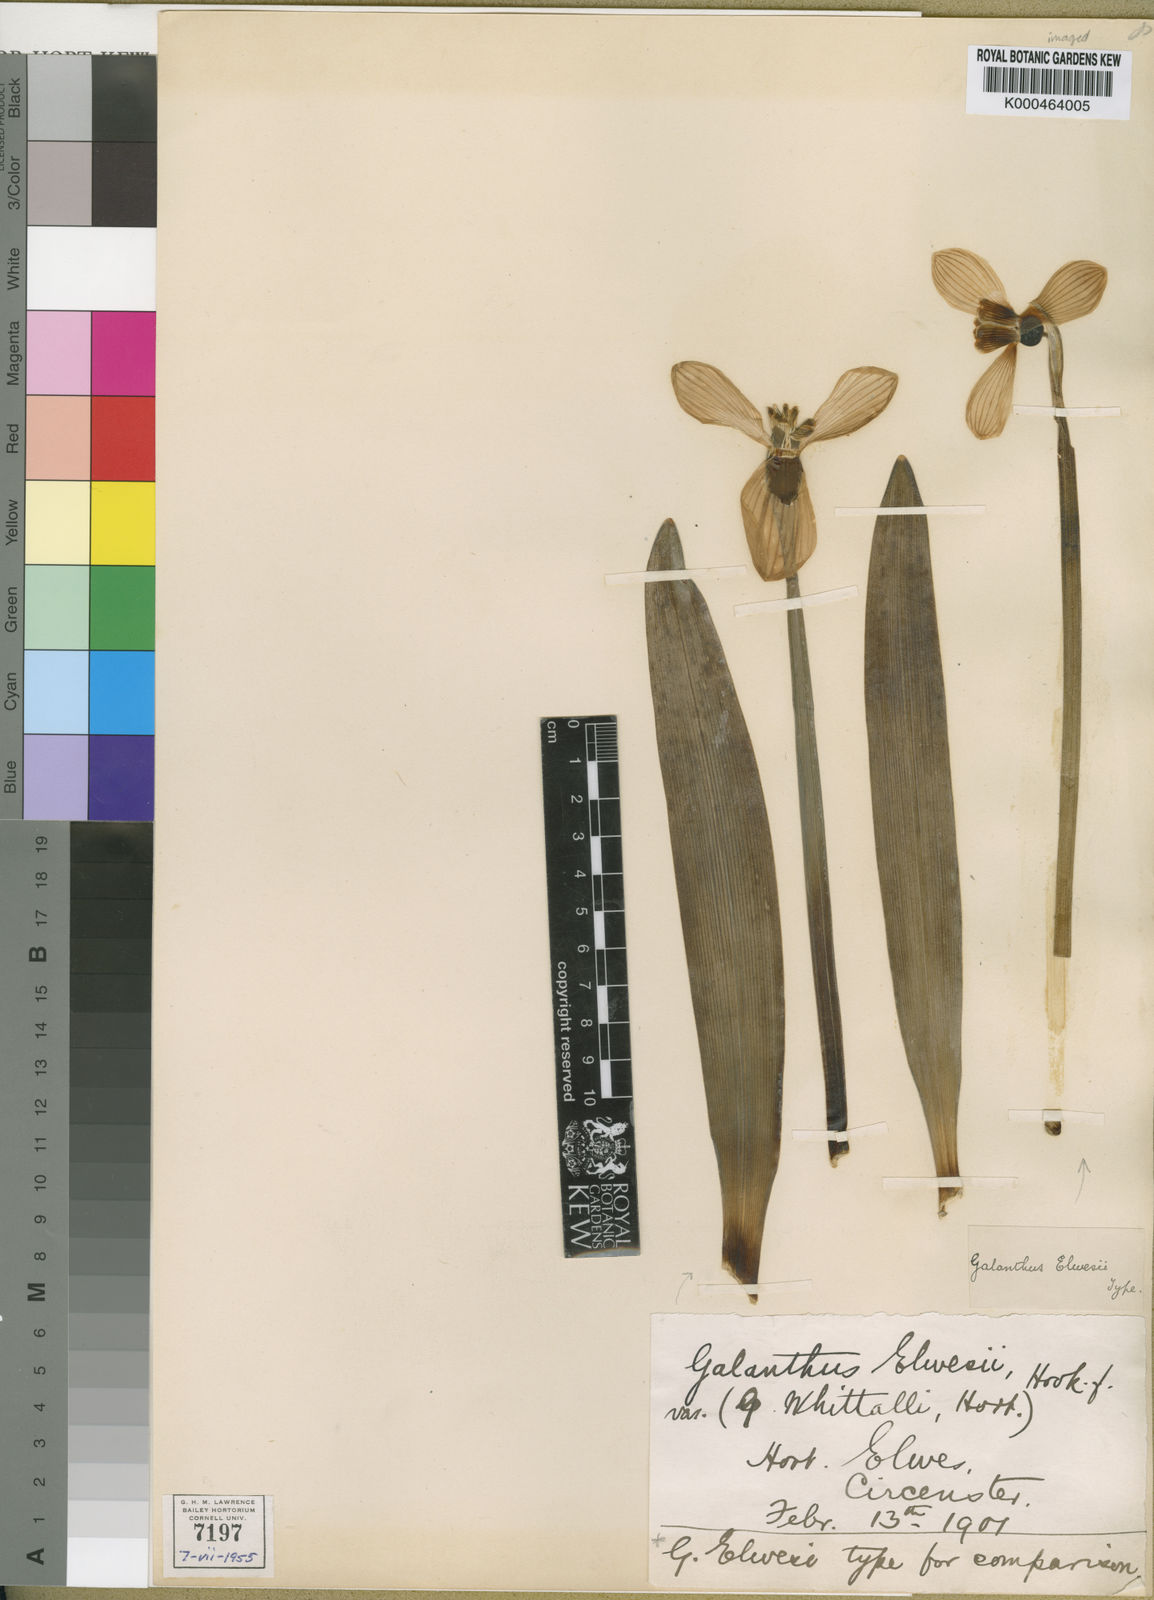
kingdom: Plantae
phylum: Tracheophyta
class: Liliopsida
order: Asparagales
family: Amaryllidaceae
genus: Galanthus
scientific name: Galanthus elwesii
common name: Greater snowdrop
